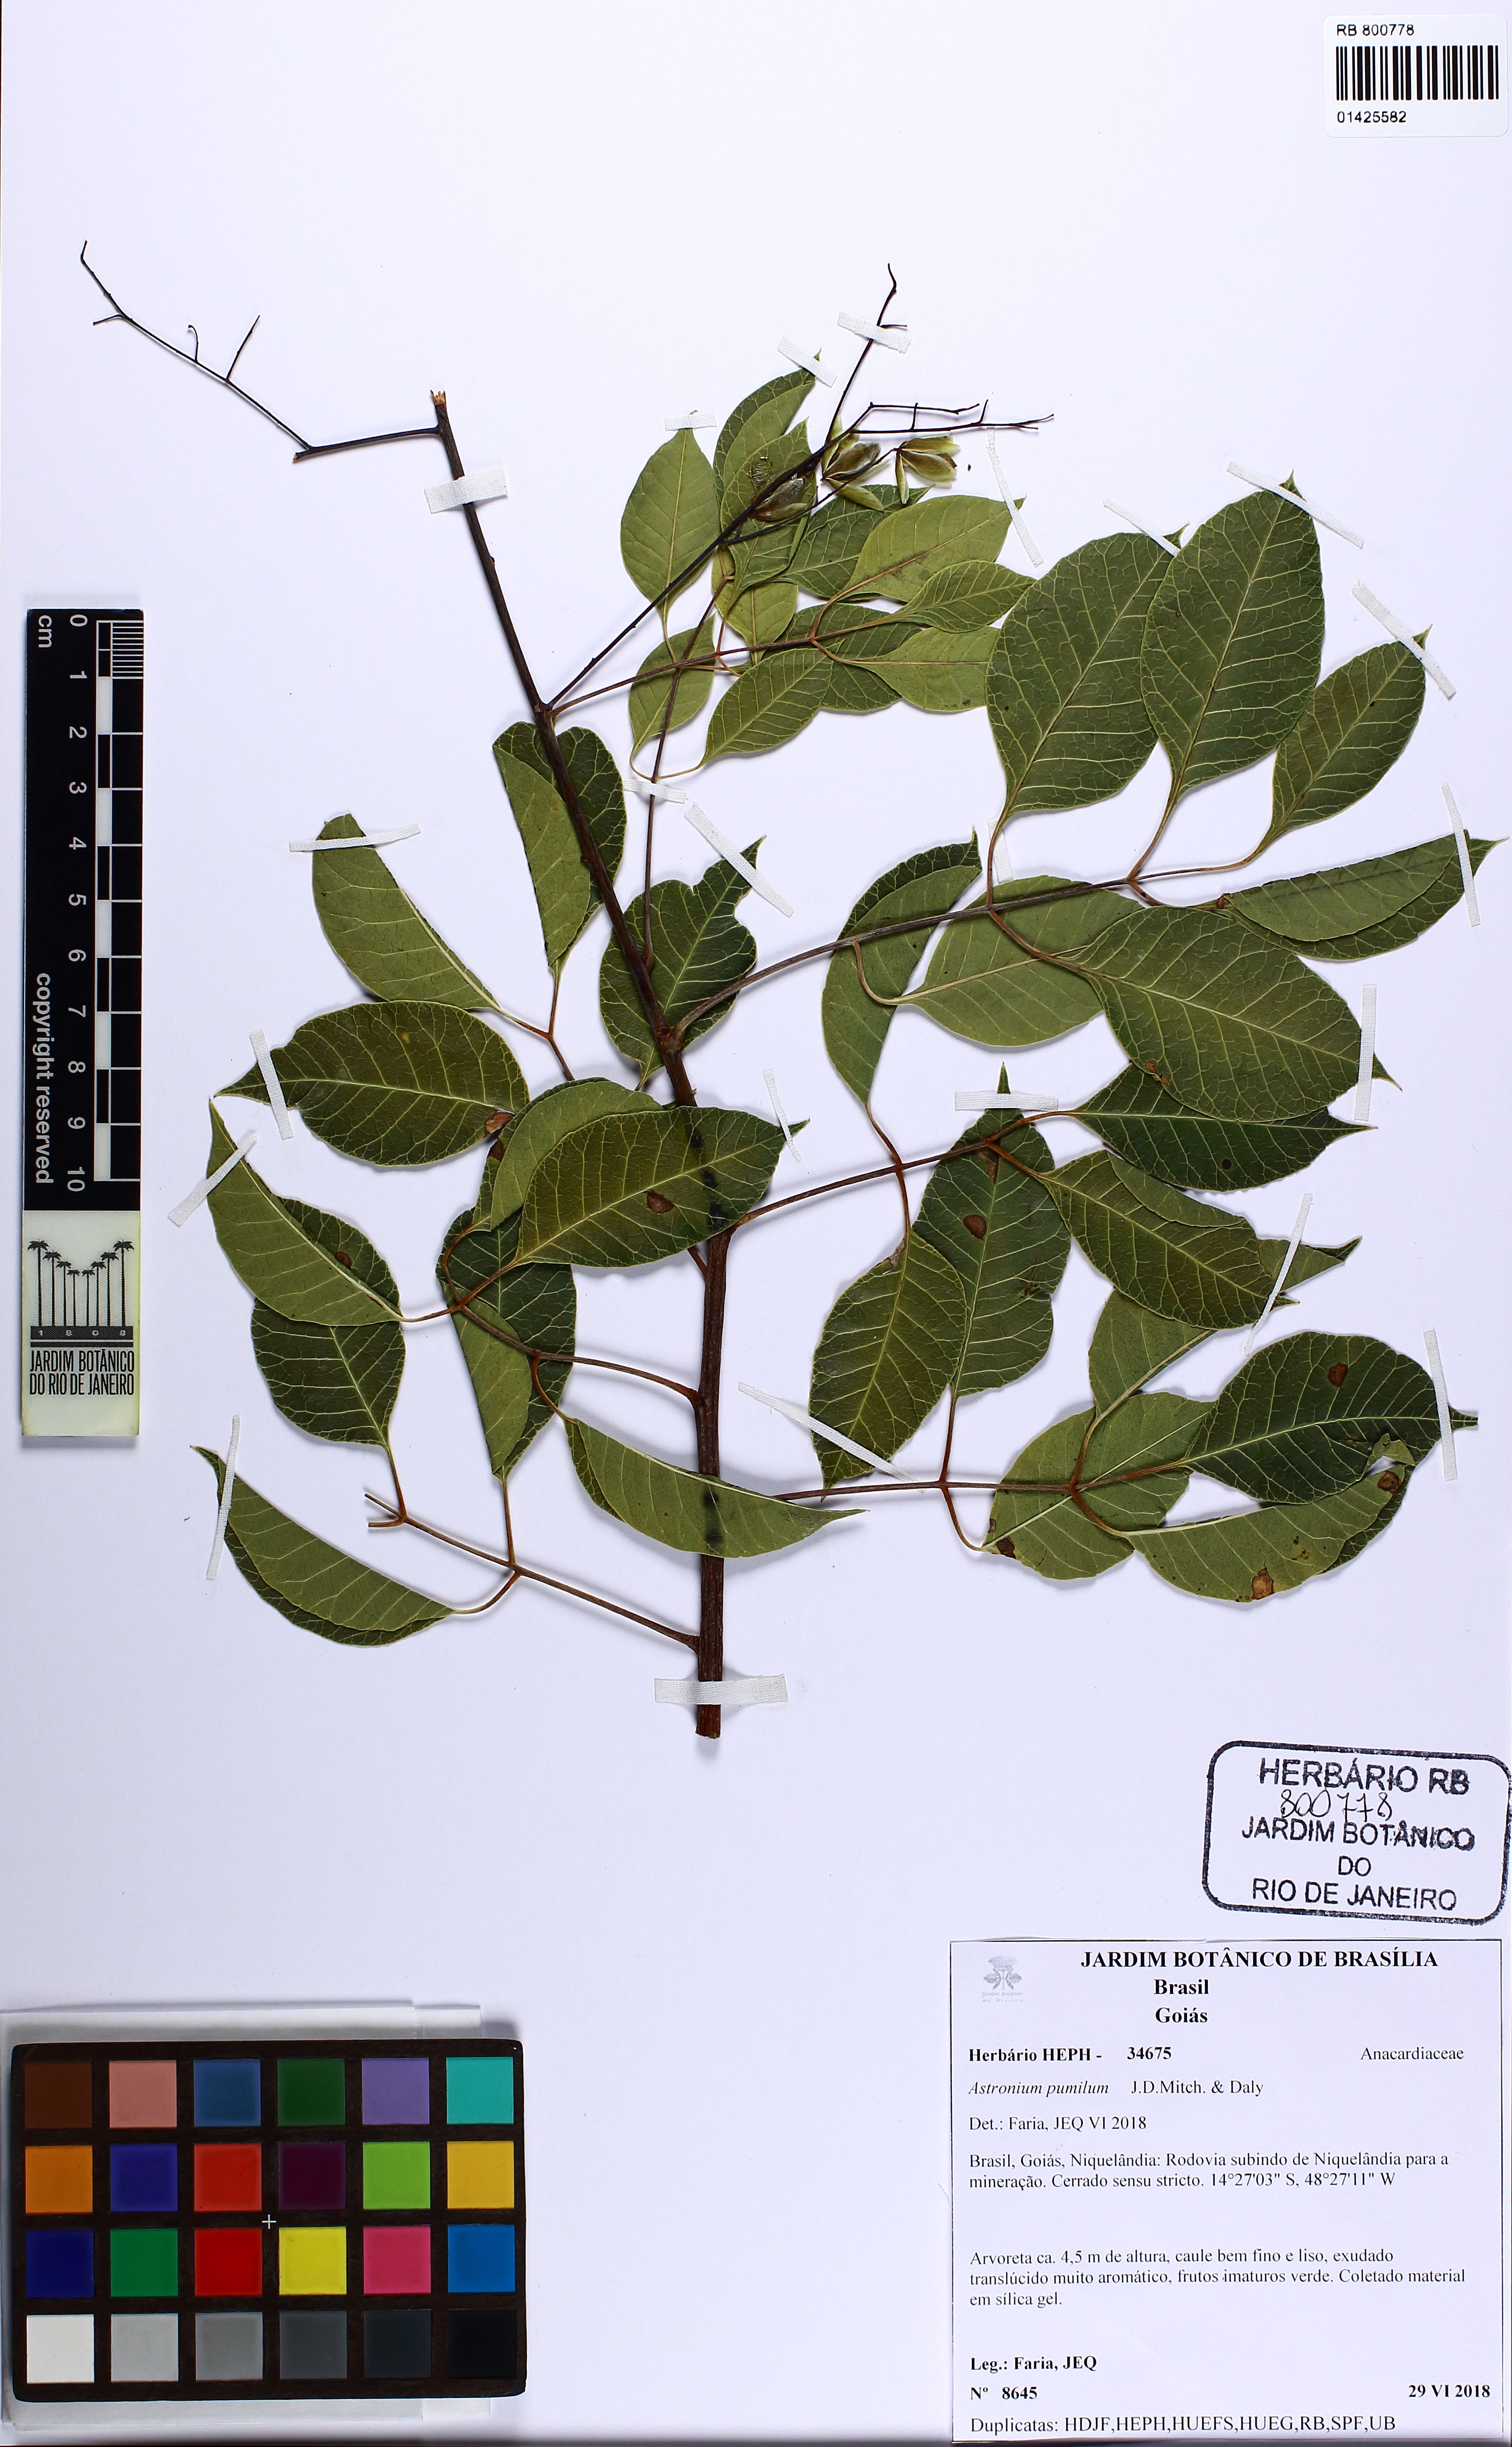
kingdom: Plantae
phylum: Tracheophyta
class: Magnoliopsida
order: Sapindales
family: Anacardiaceae
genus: Astronium
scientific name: Astronium pumilum
